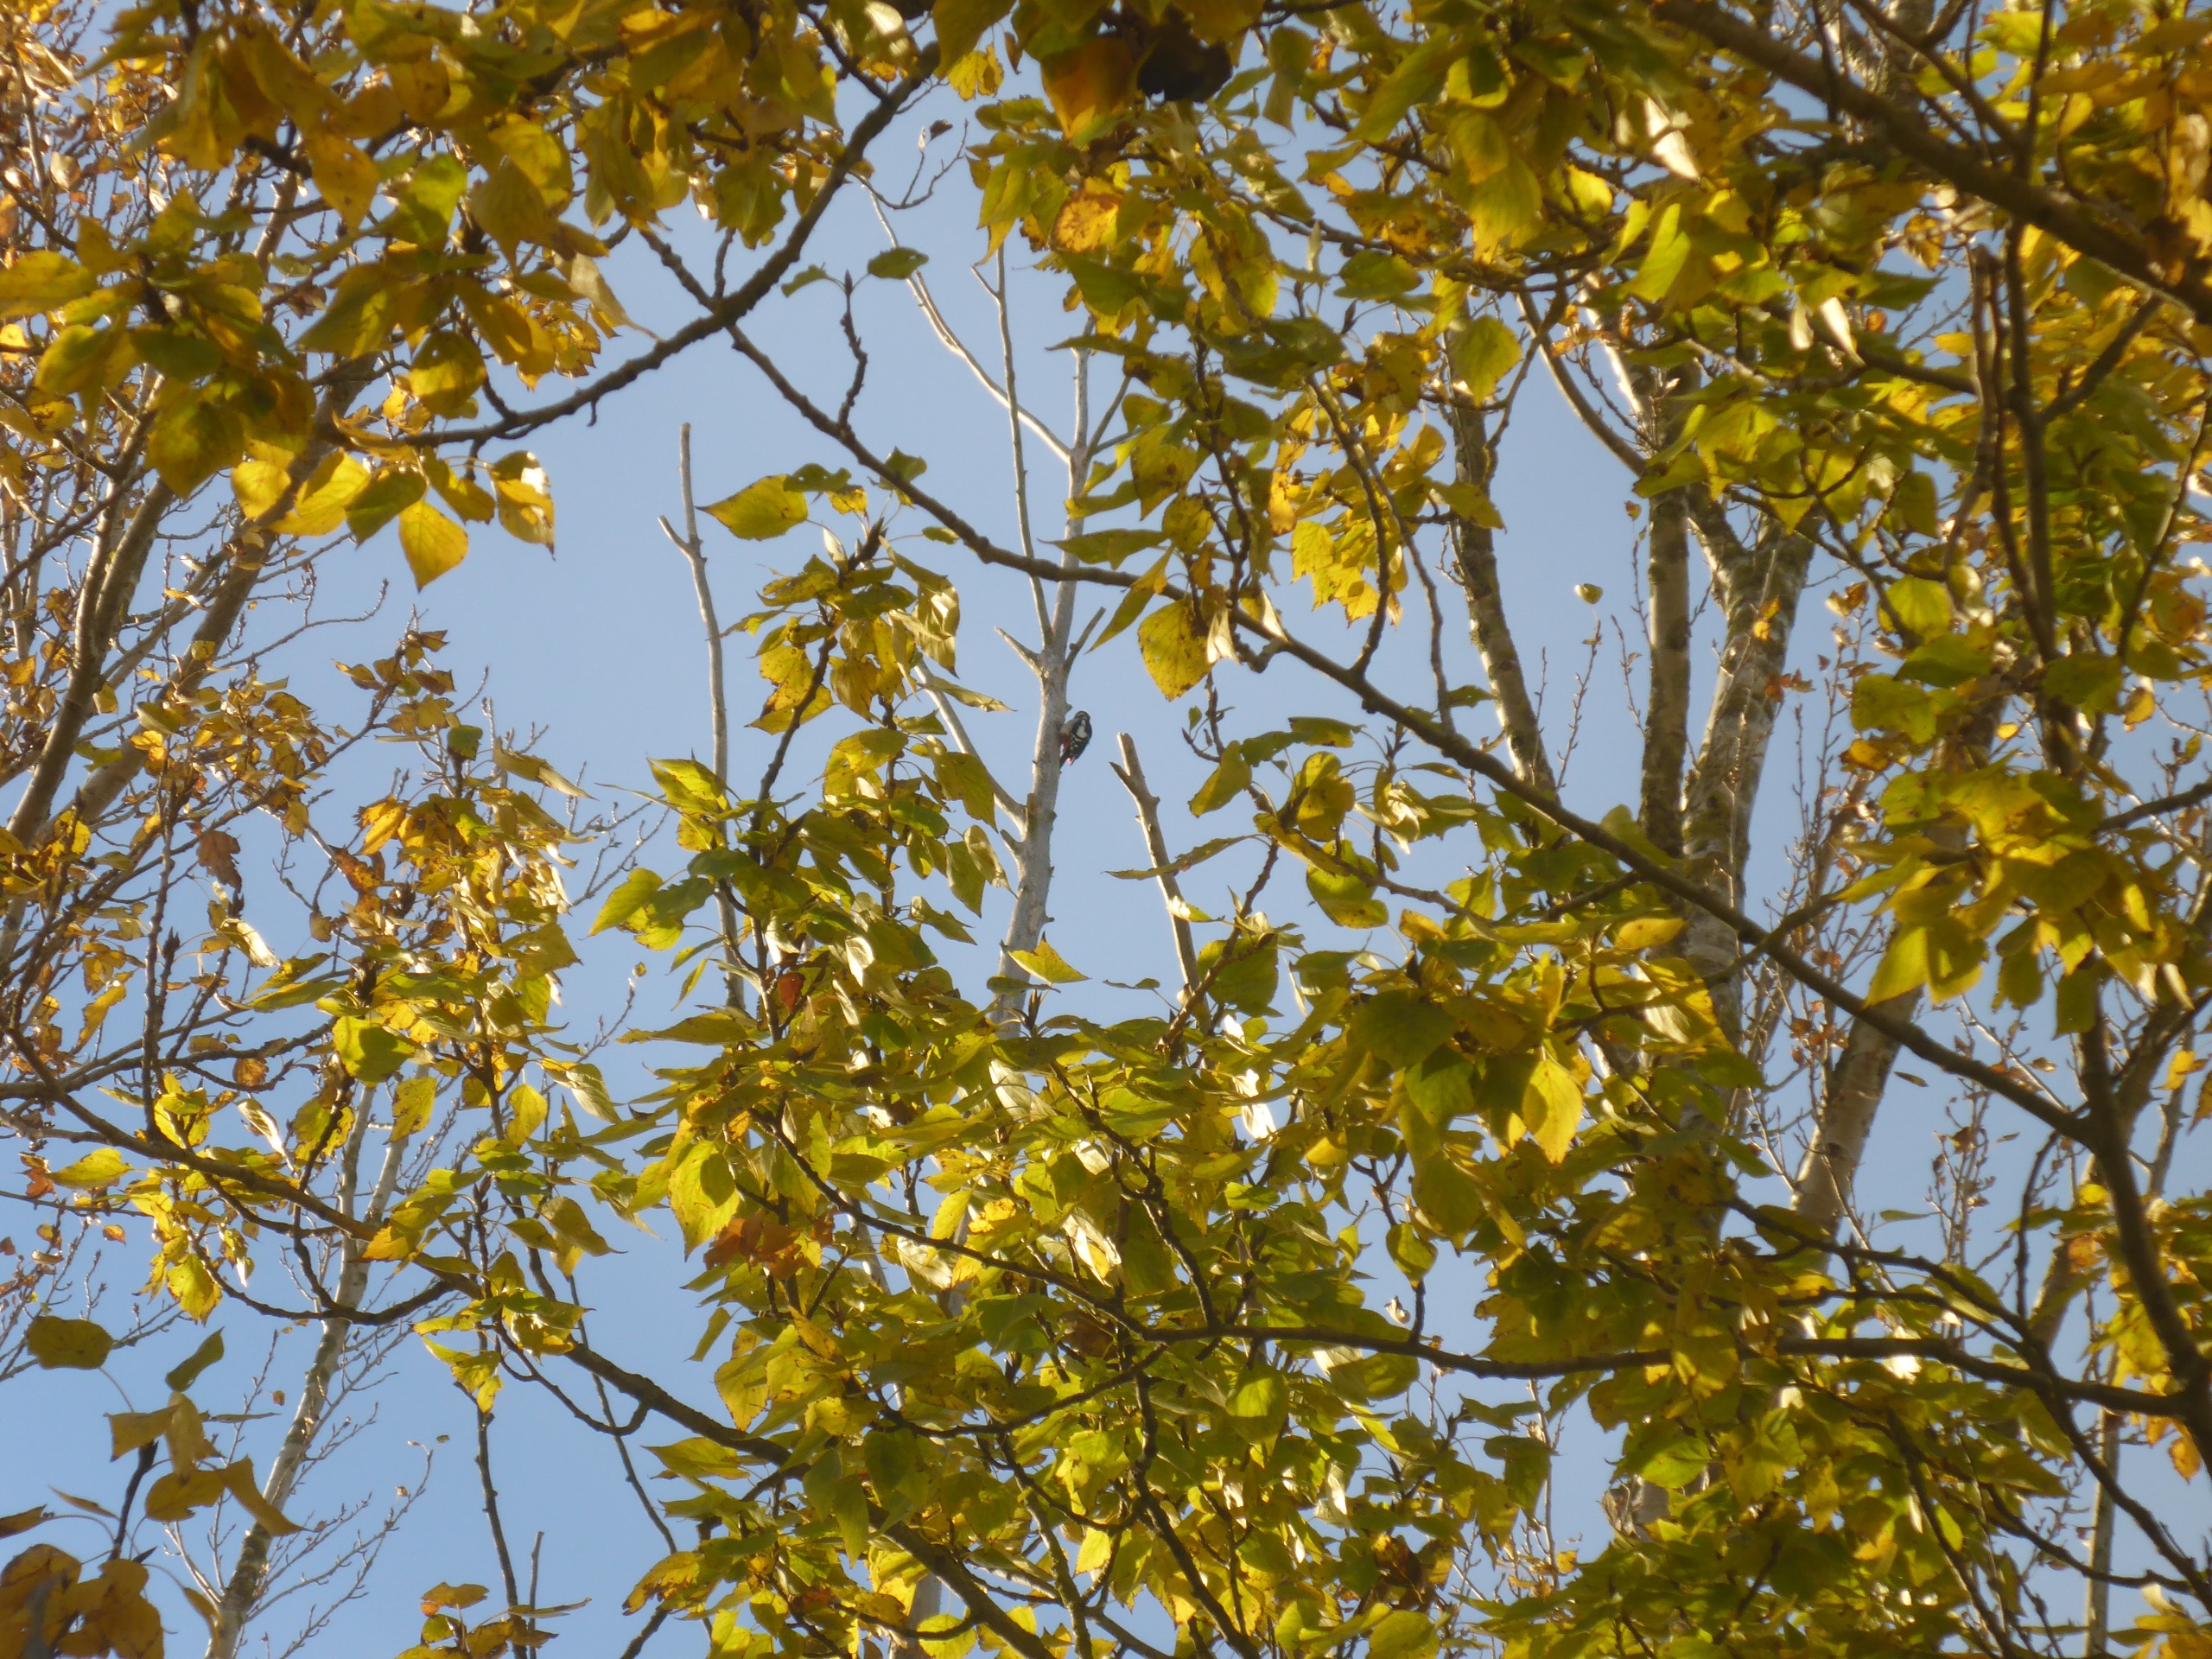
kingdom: Animalia
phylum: Chordata
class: Aves
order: Piciformes
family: Picidae
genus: Dendrocopos
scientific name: Dendrocopos major
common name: Stor flagspætte
